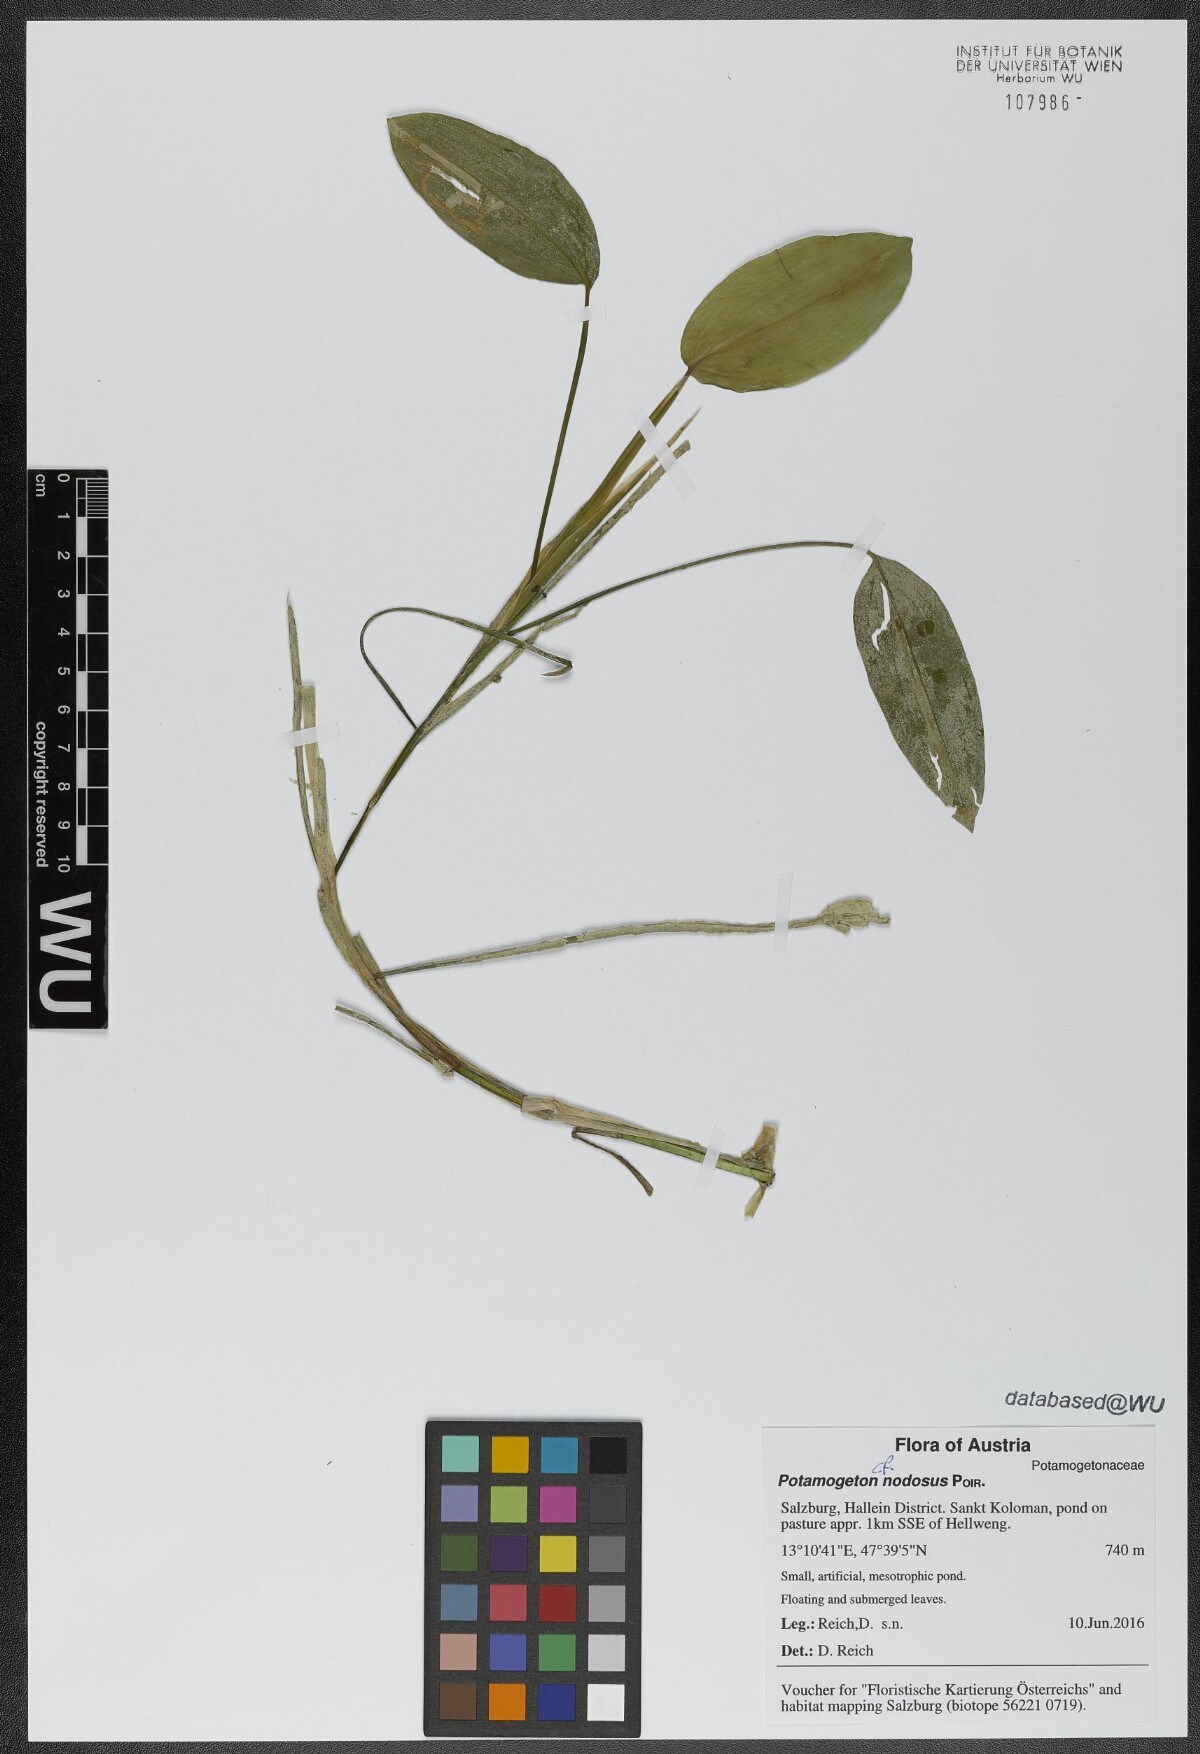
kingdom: Plantae
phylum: Tracheophyta
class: Liliopsida
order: Alismatales
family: Potamogetonaceae
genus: Potamogeton
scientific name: Potamogeton natans
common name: Broad-leaved pondweed
